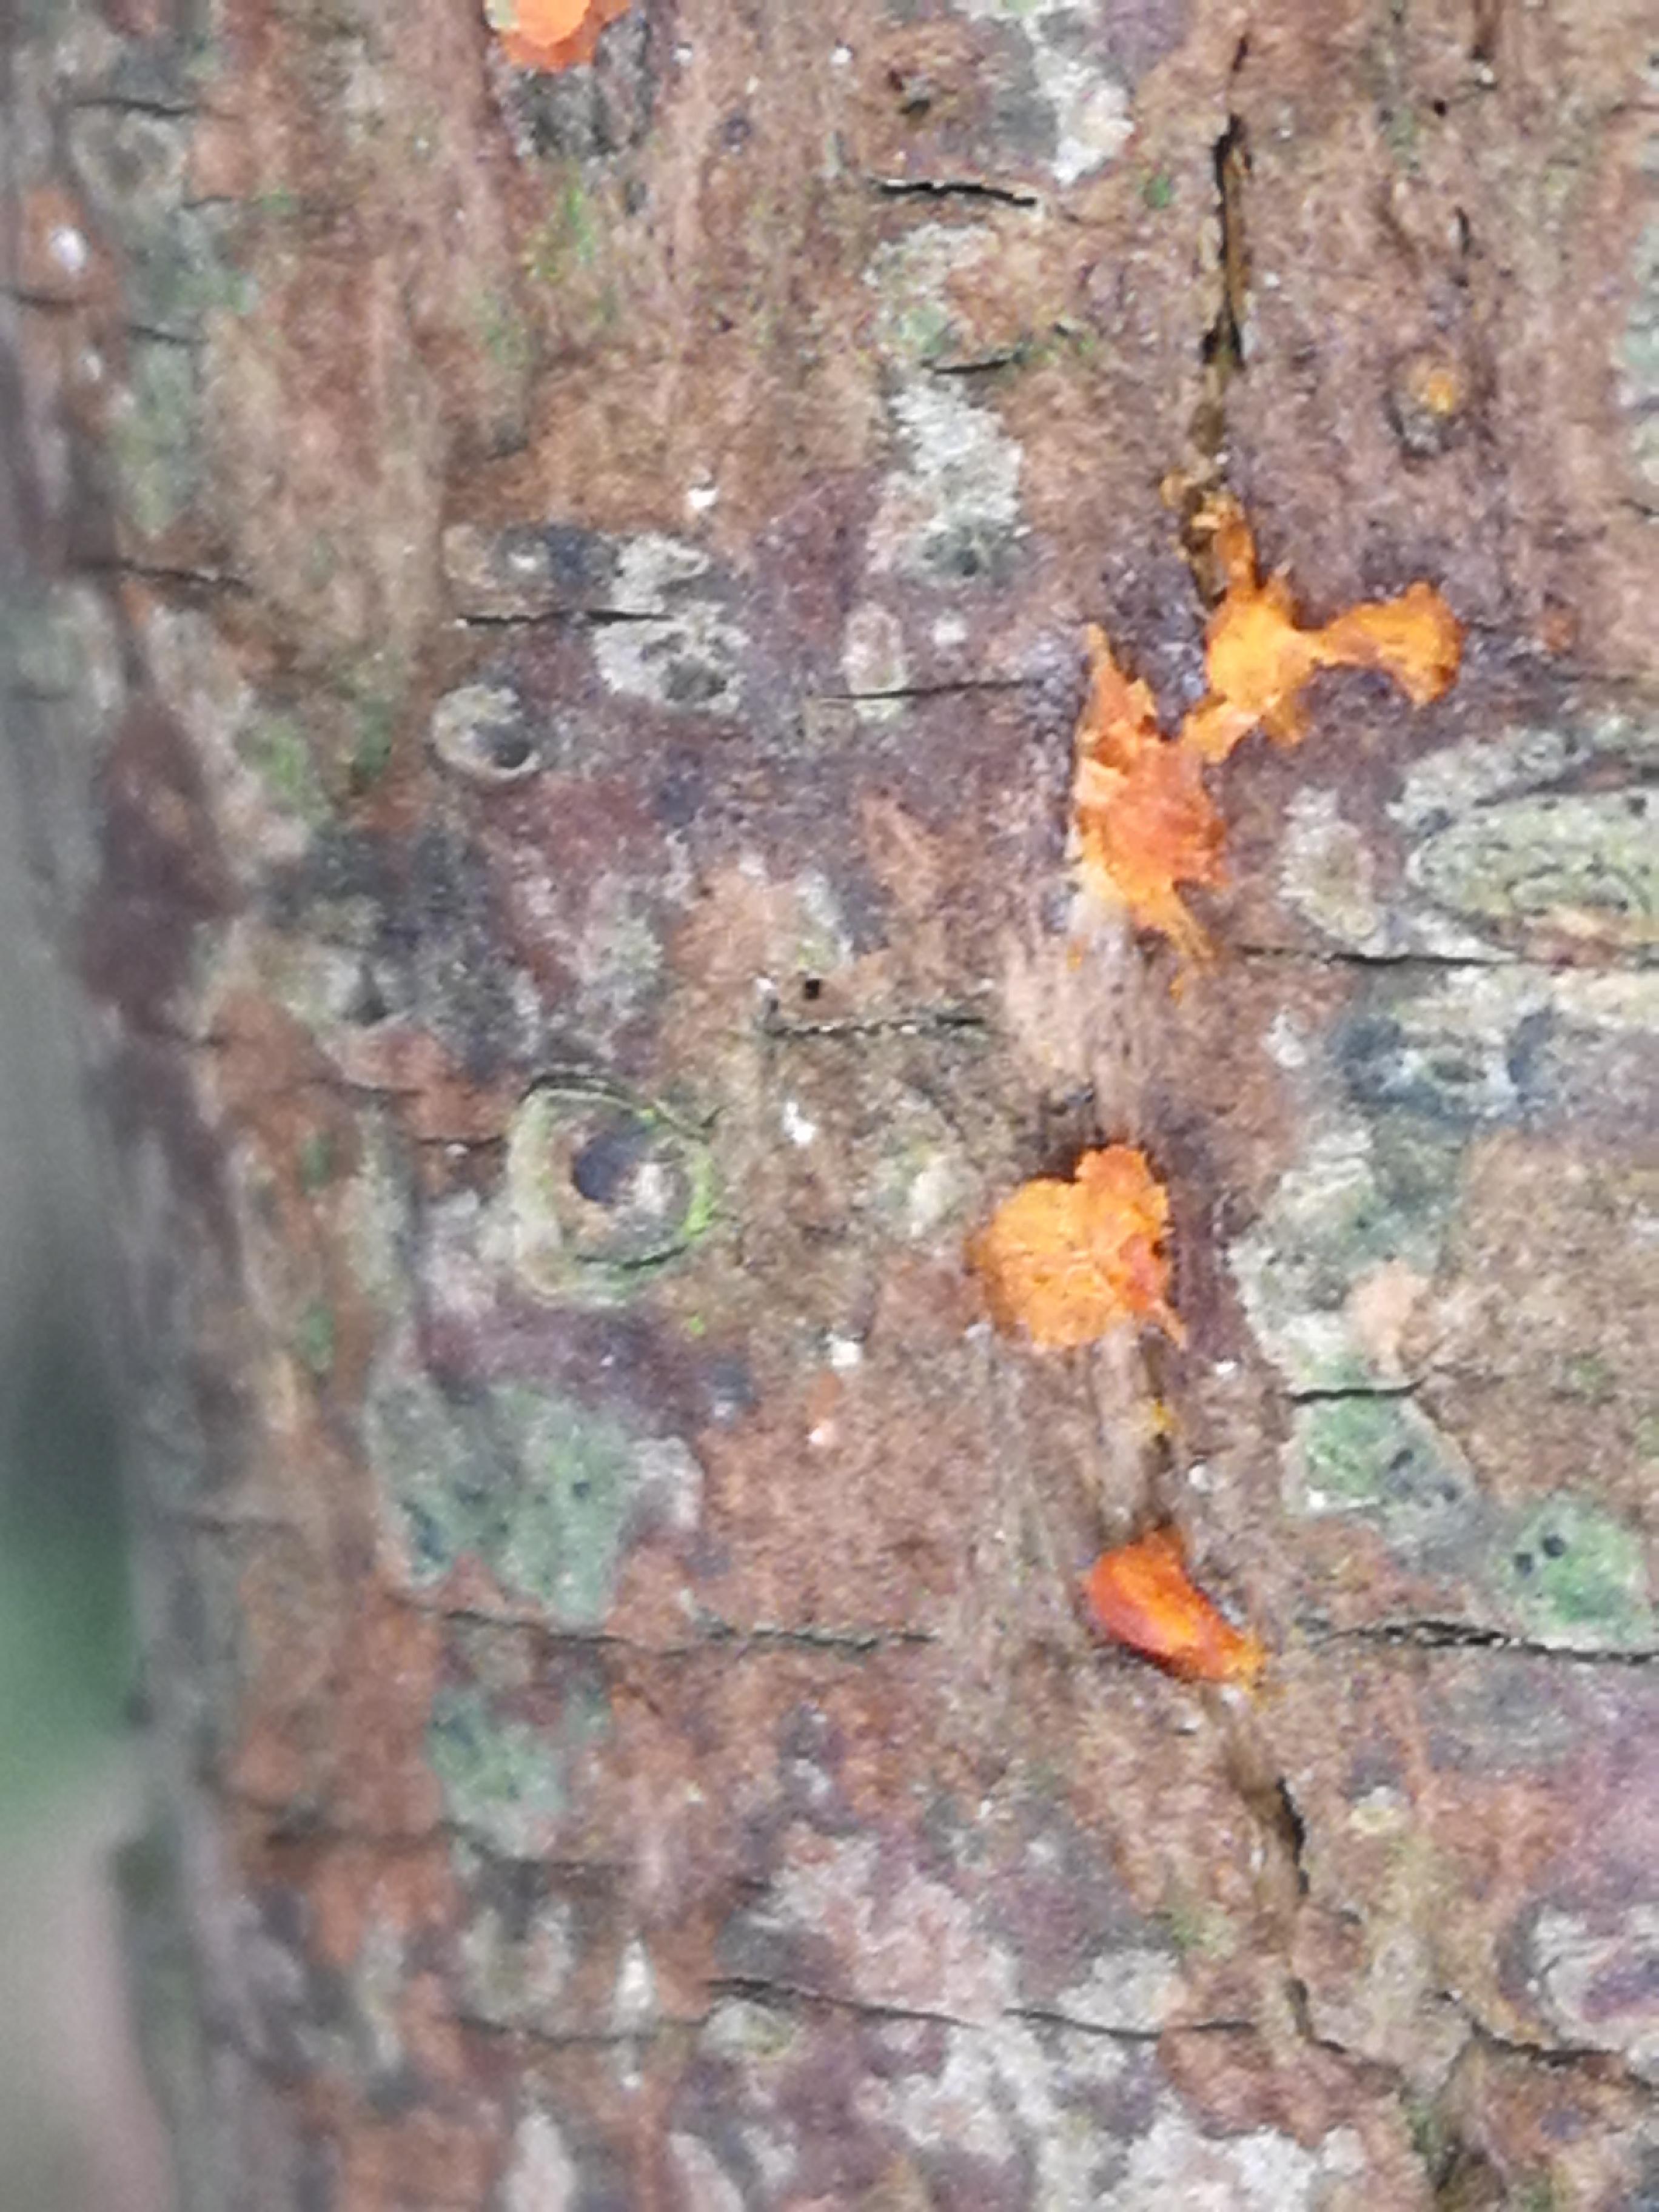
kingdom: Fungi
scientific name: Fungi
